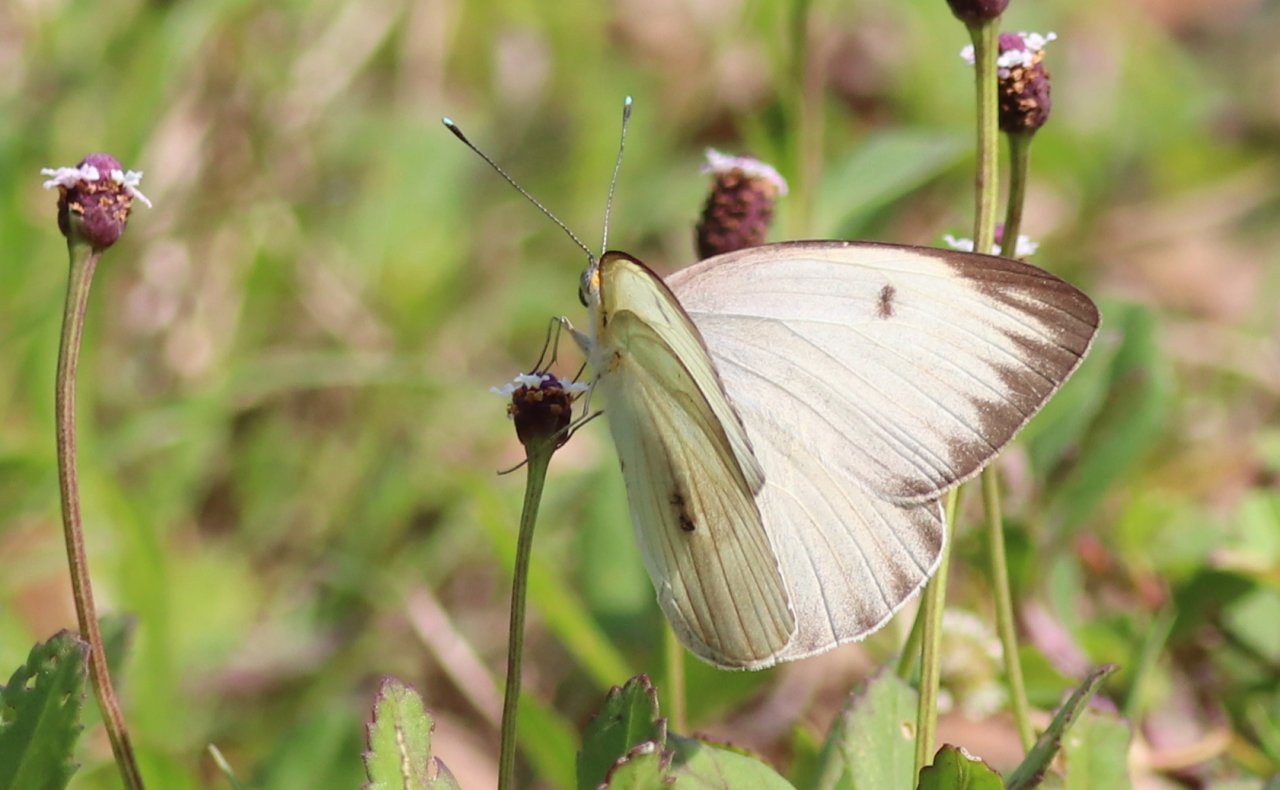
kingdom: Animalia
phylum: Arthropoda
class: Insecta
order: Lepidoptera
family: Pieridae
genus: Ascia
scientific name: Ascia monuste
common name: Great Southern White
